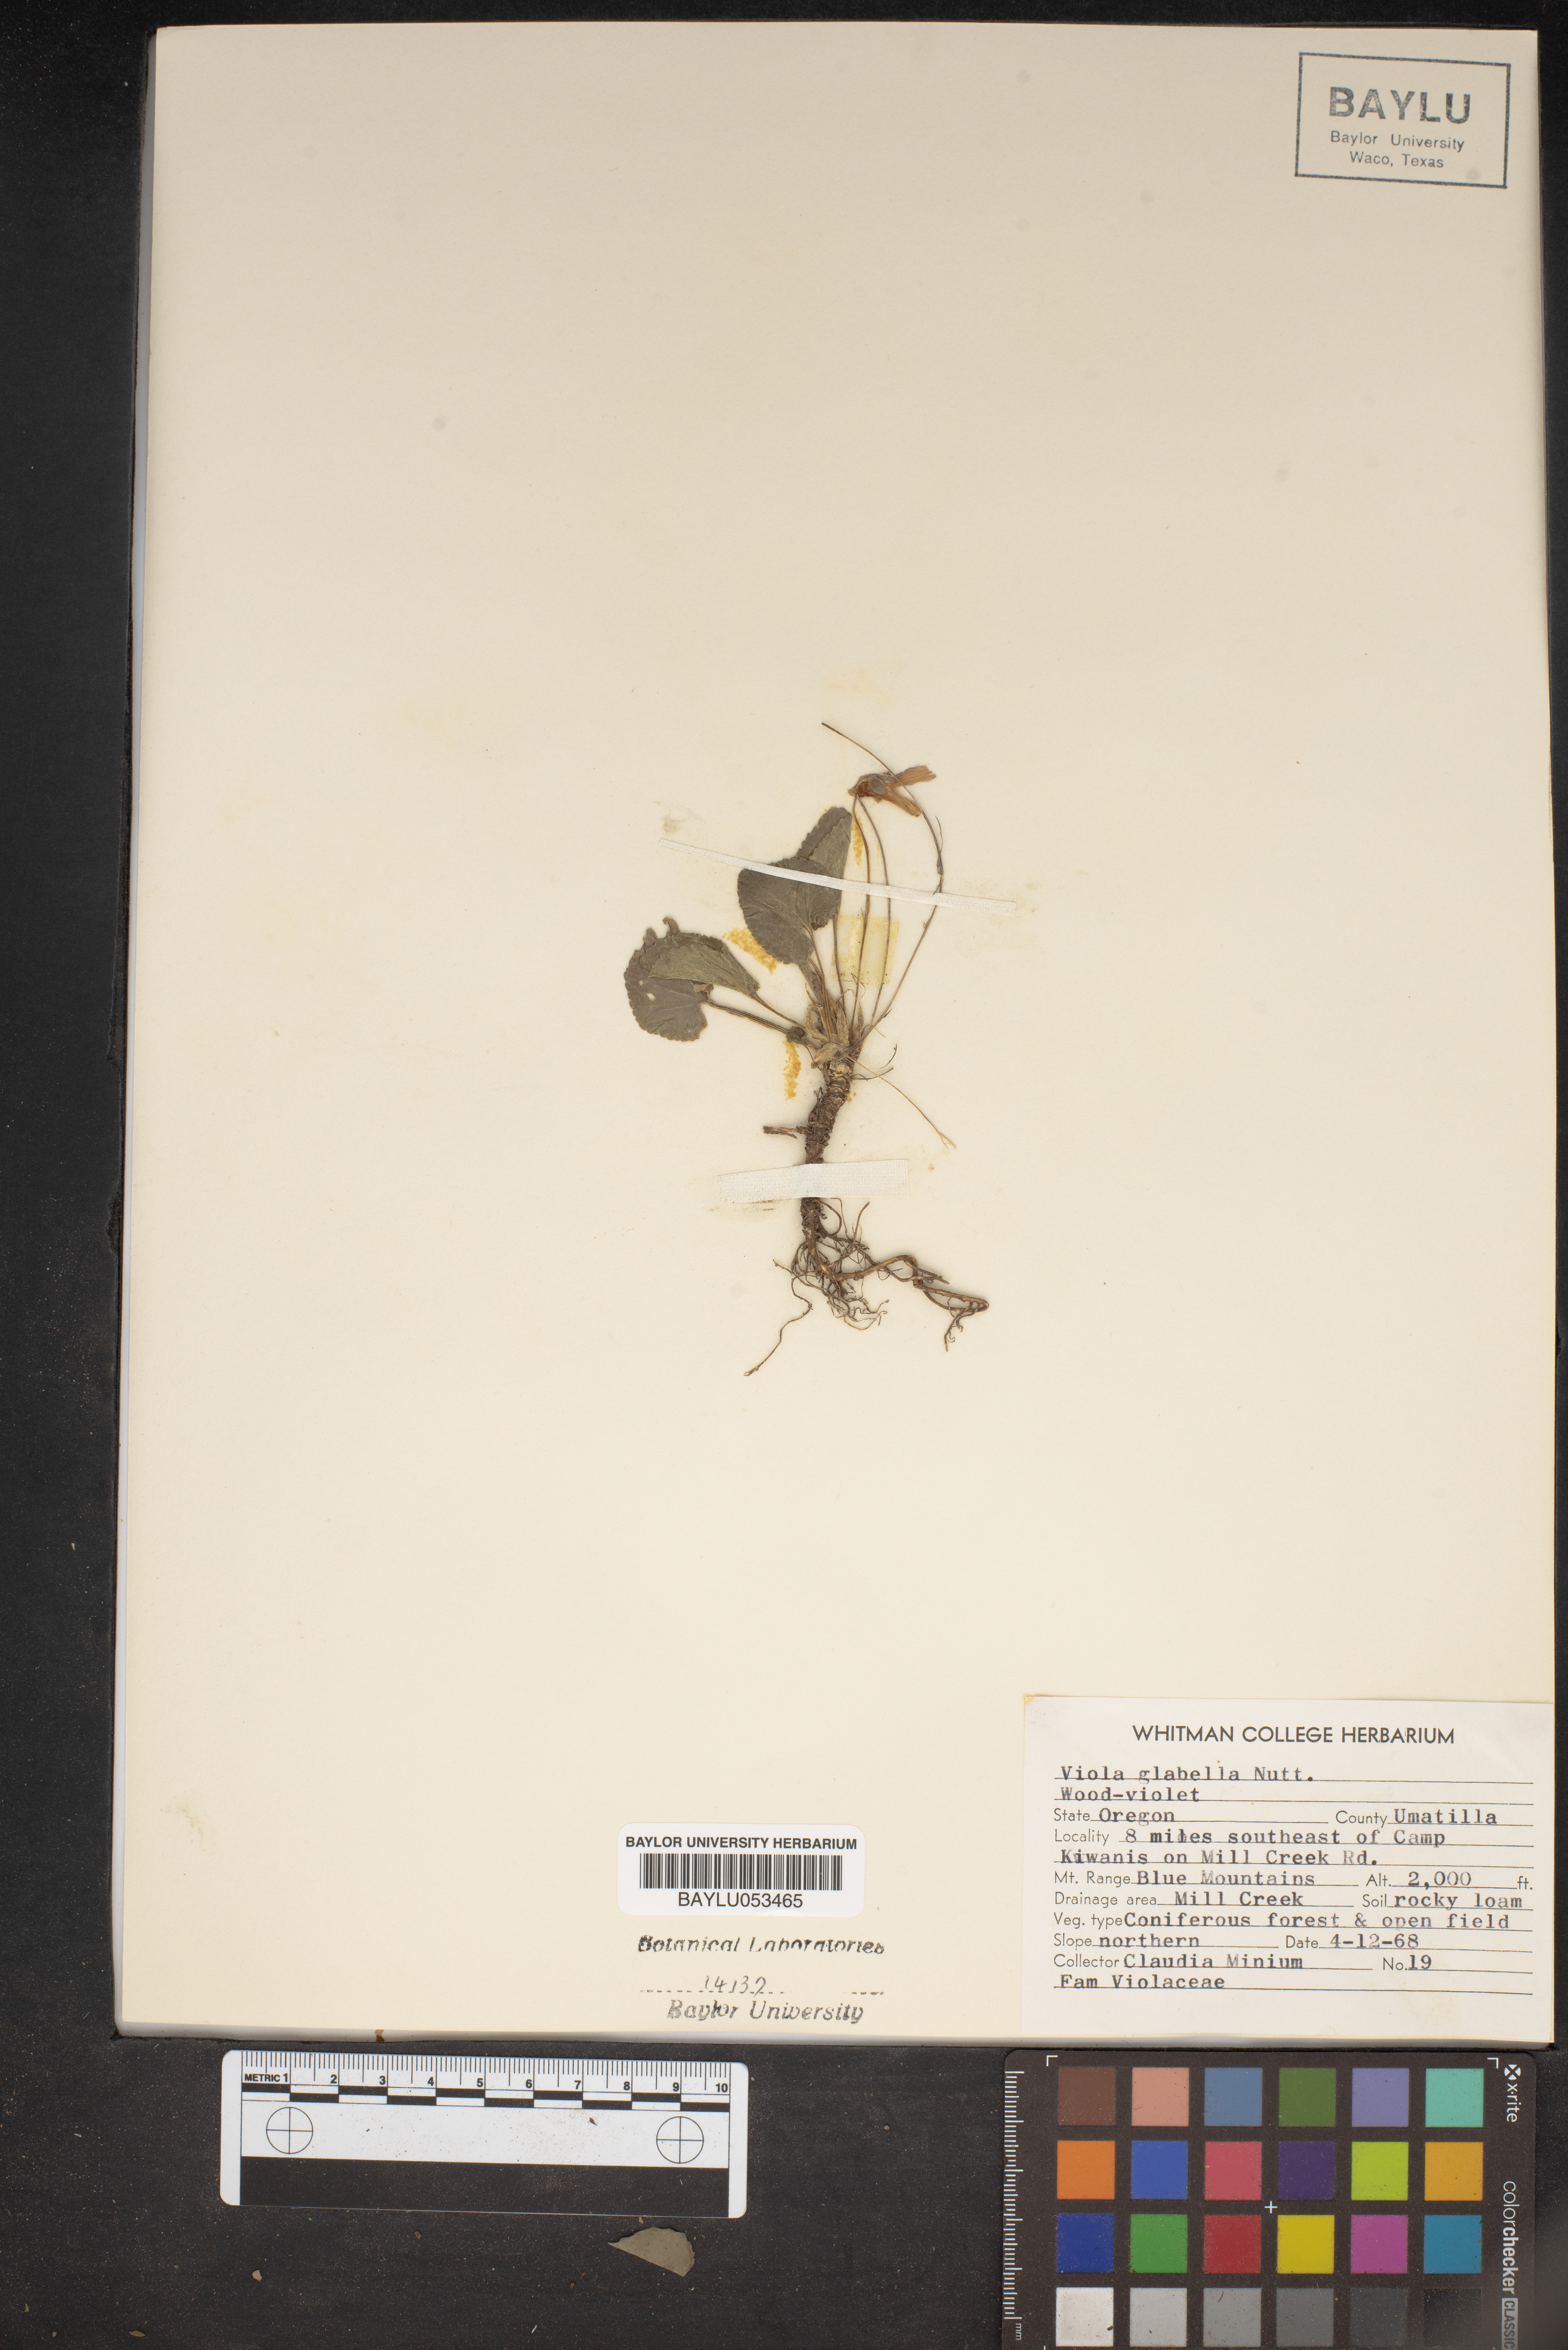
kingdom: Plantae
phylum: Tracheophyta
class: Magnoliopsida
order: Malpighiales
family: Violaceae
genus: Viola
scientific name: Viola glabella
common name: Stream violet
